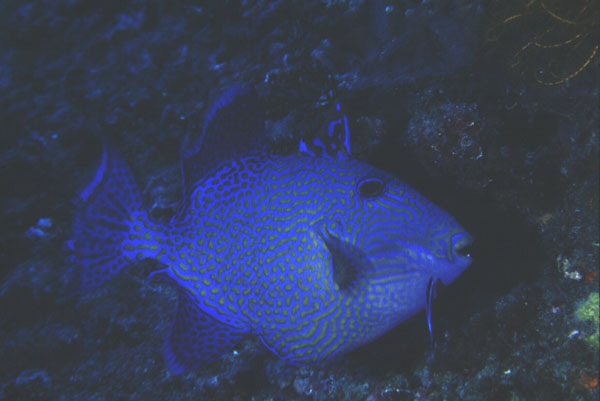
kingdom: Animalia
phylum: Chordata
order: Tetraodontiformes
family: Balistidae
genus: Pseudobalistes
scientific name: Pseudobalistes fuscus
